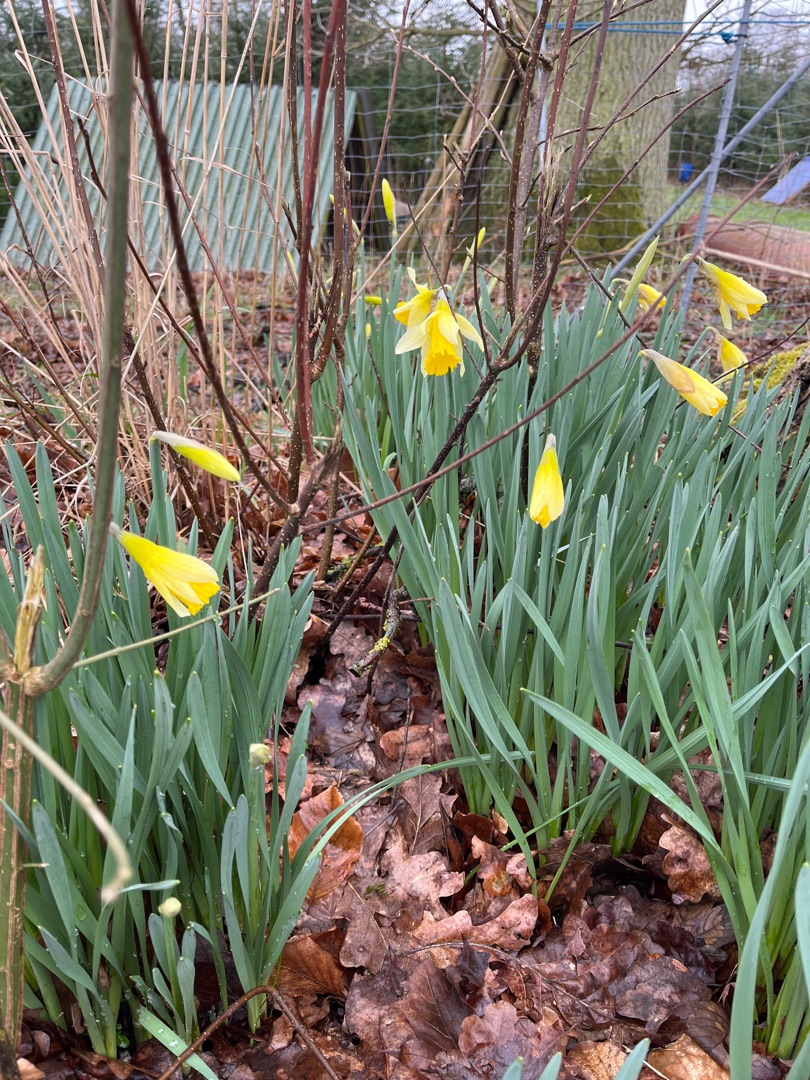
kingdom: Plantae
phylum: Tracheophyta
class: Liliopsida
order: Asparagales
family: Amaryllidaceae
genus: Narcissus
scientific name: Narcissus pseudonarcissus
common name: Påskelilje
